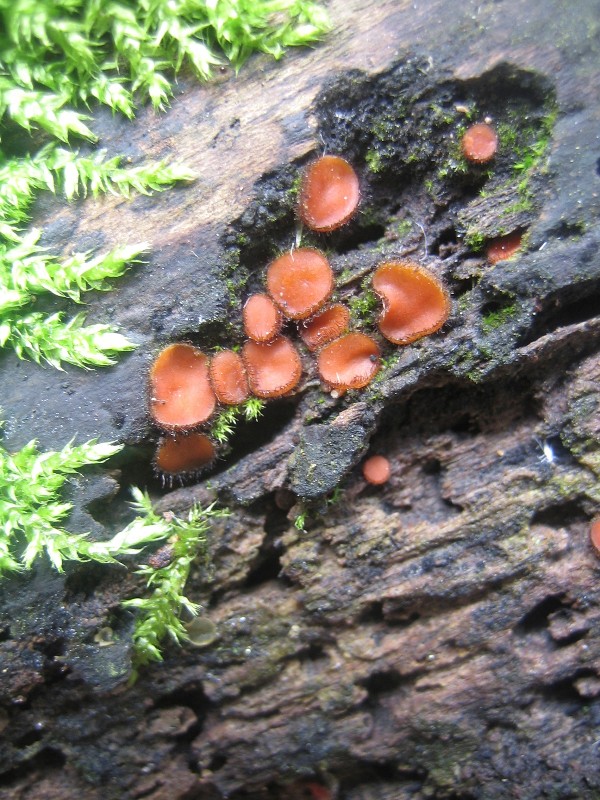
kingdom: Fungi
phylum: Ascomycota
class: Pezizomycetes
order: Pezizales
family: Pyronemataceae
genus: Scutellinia
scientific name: Scutellinia scutellata
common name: frynset skjoldbæger
